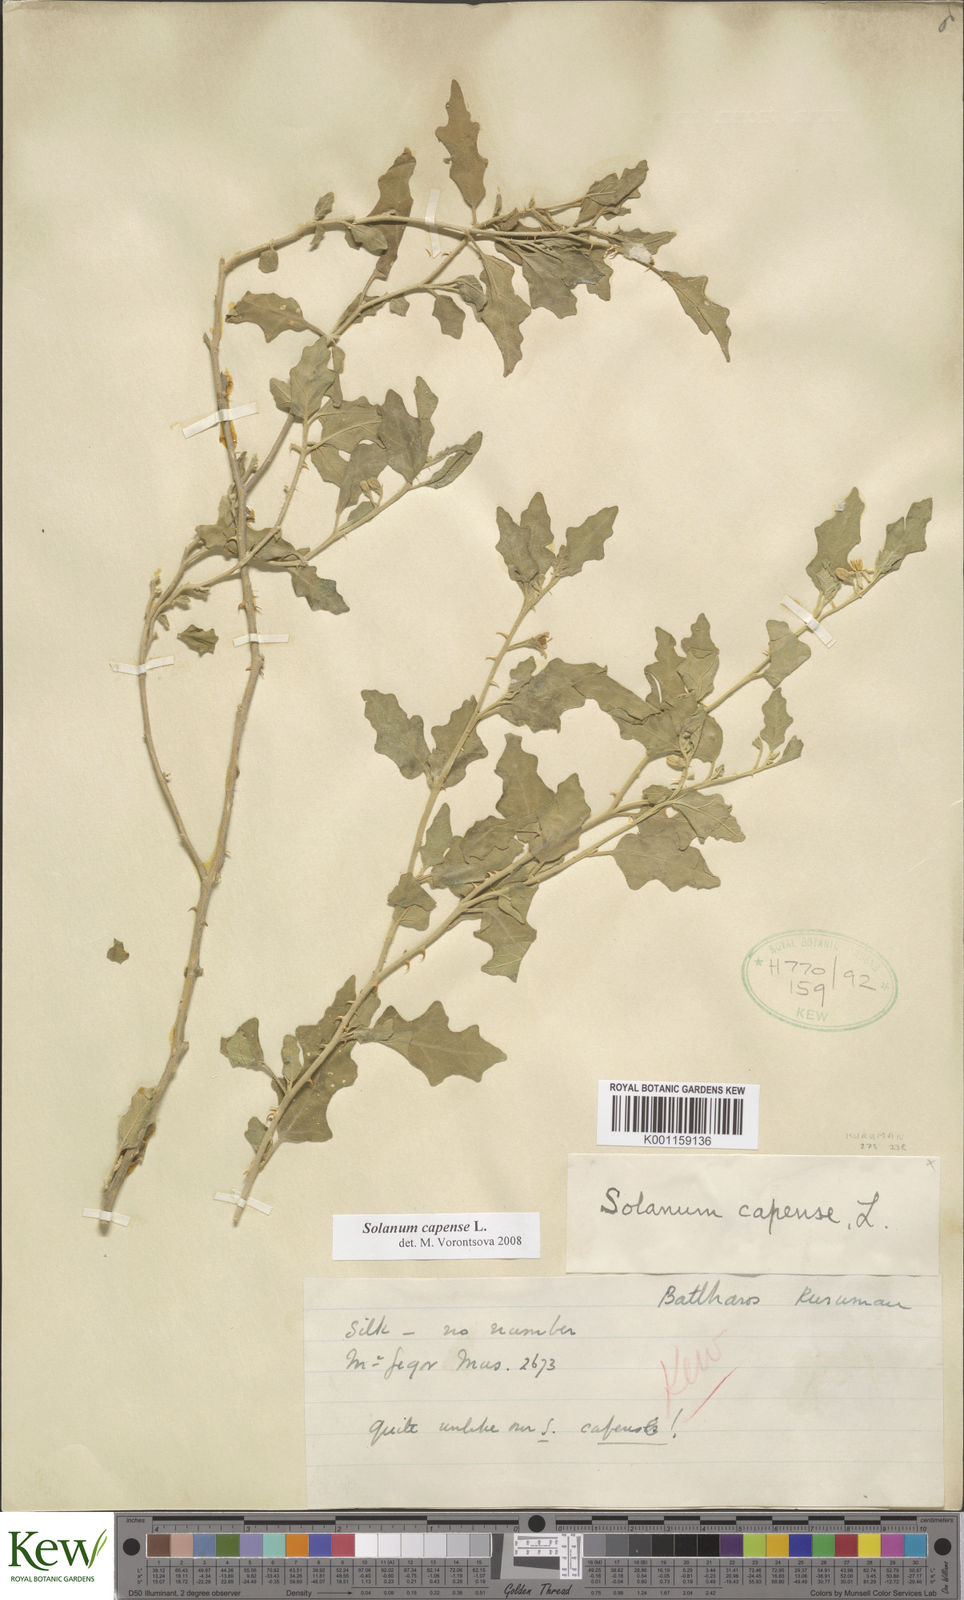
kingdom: Plantae
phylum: Tracheophyta
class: Magnoliopsida
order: Solanales
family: Solanaceae
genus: Solanum
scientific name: Solanum capense
